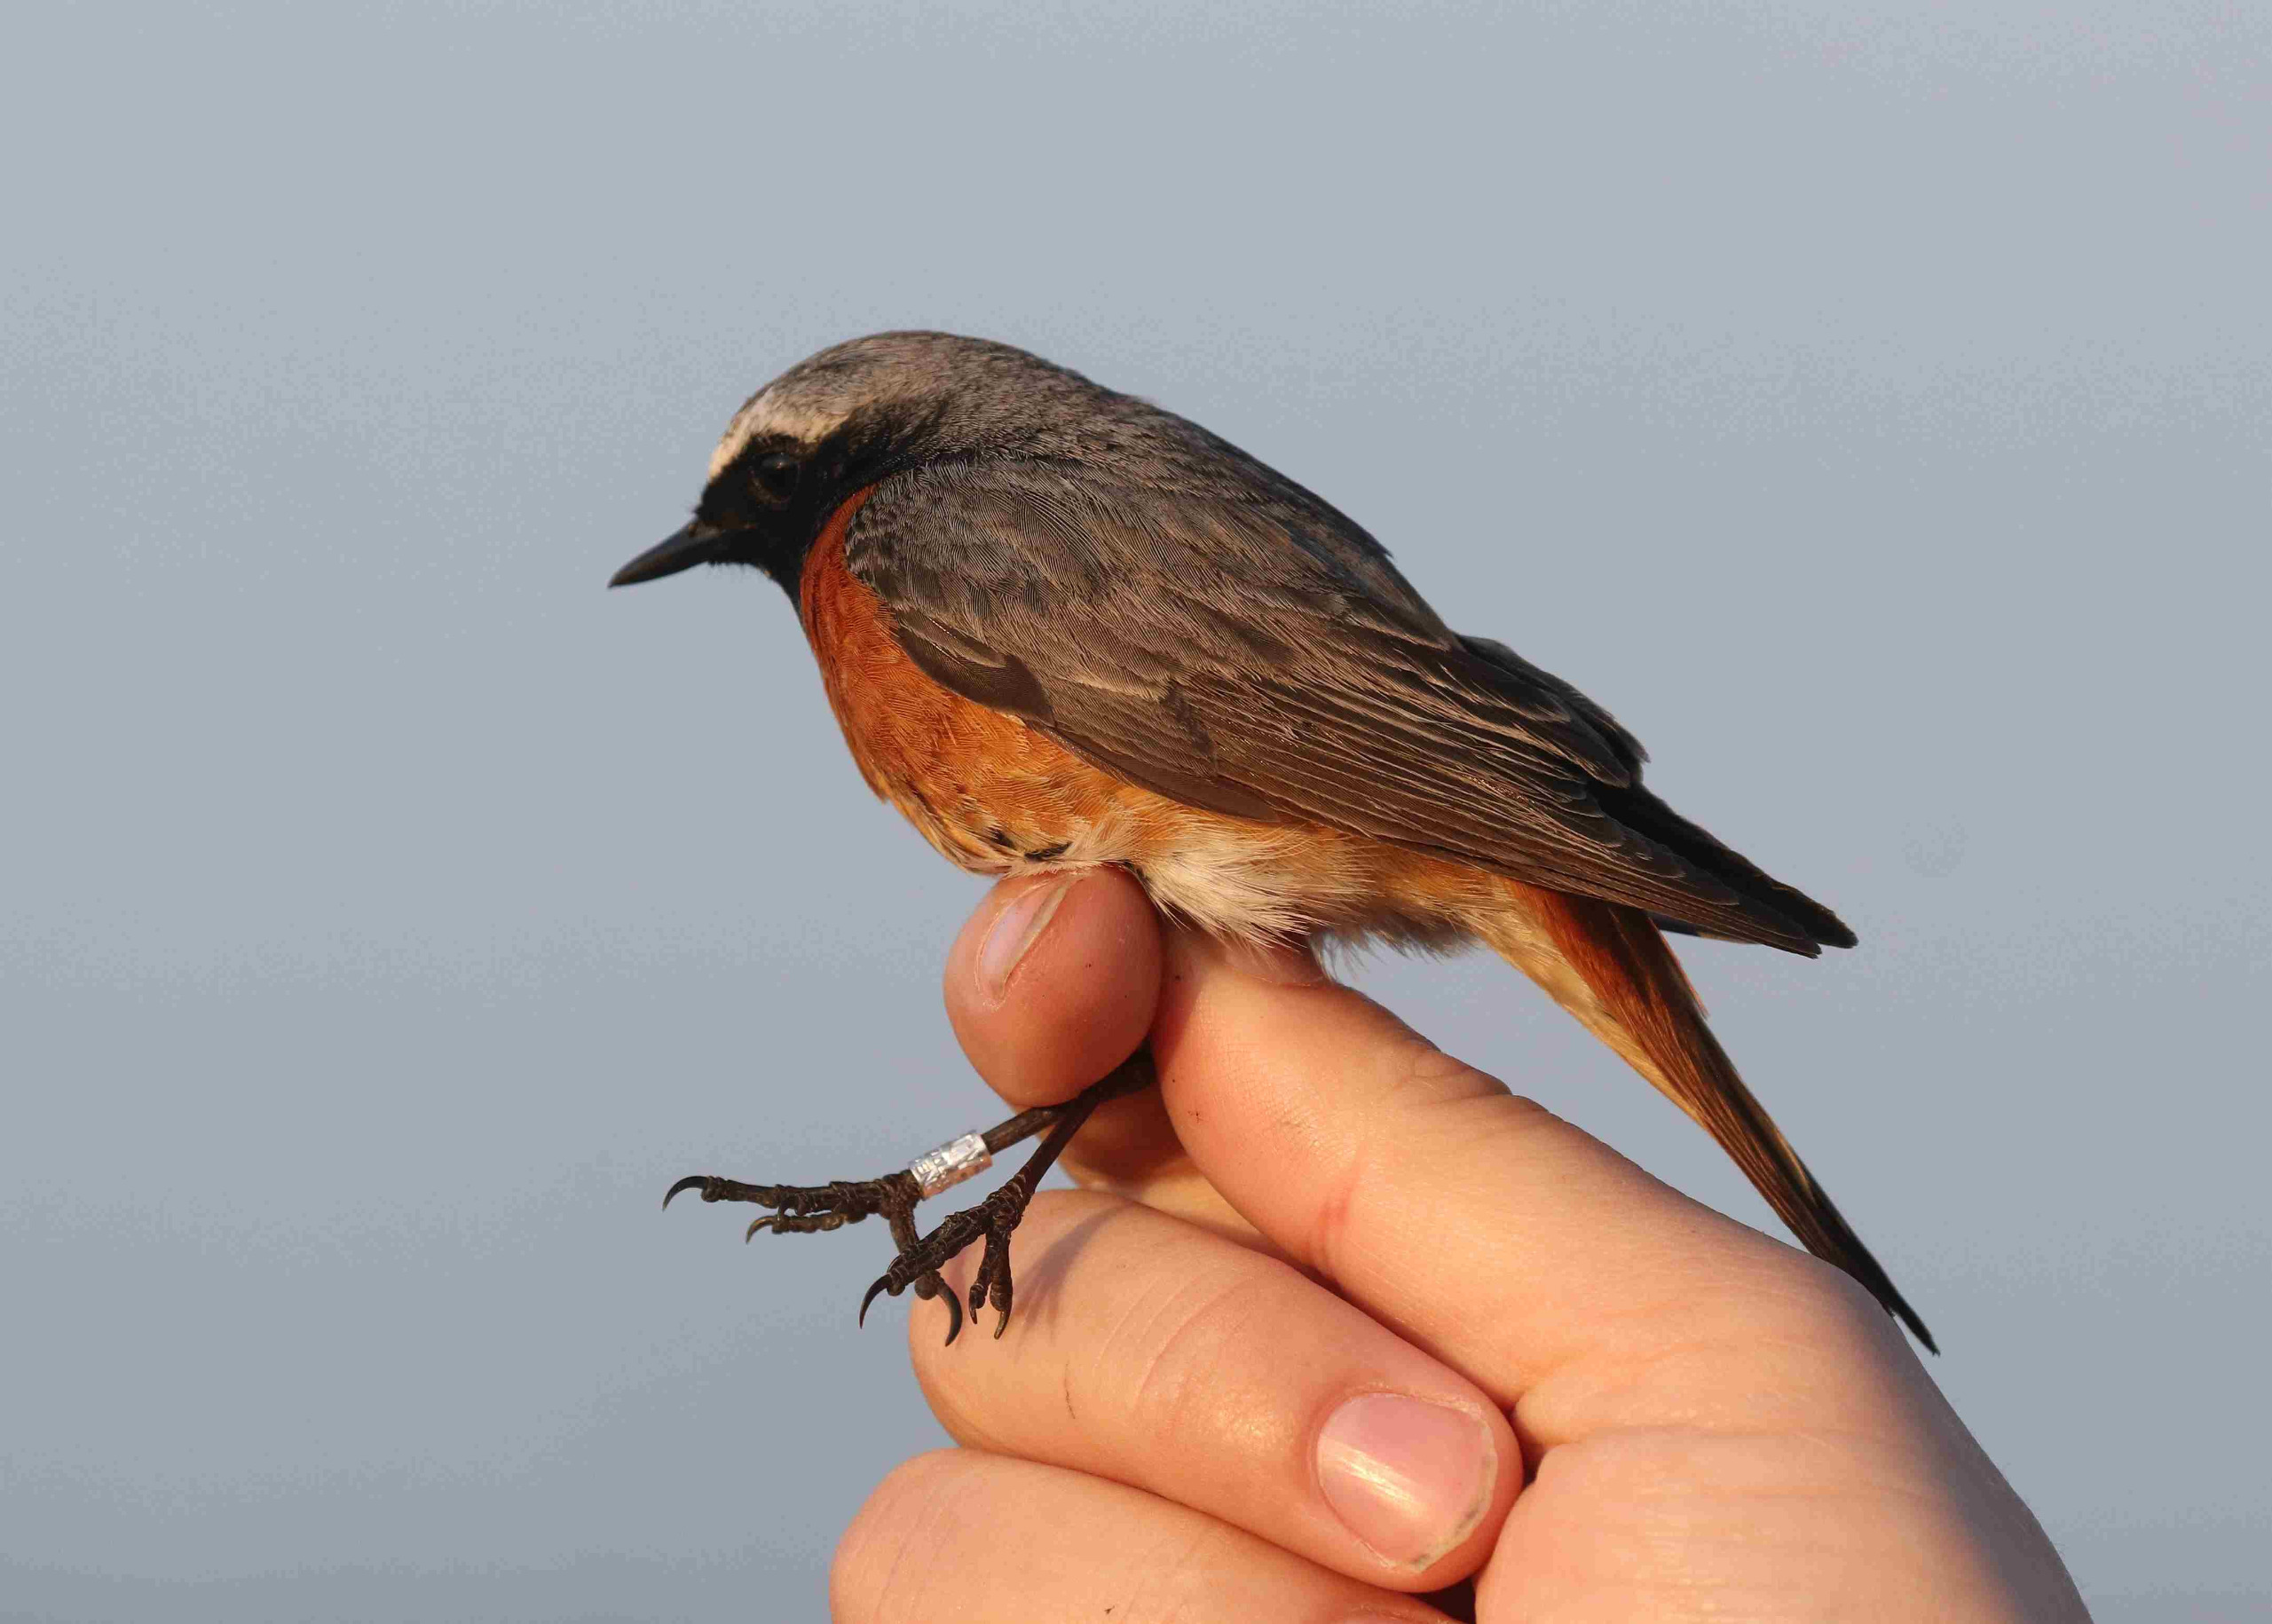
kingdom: Animalia
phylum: Chordata
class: Aves
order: Passeriformes
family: Muscicapidae
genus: Phoenicurus
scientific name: Phoenicurus phoenicurus
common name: Rødstjert
